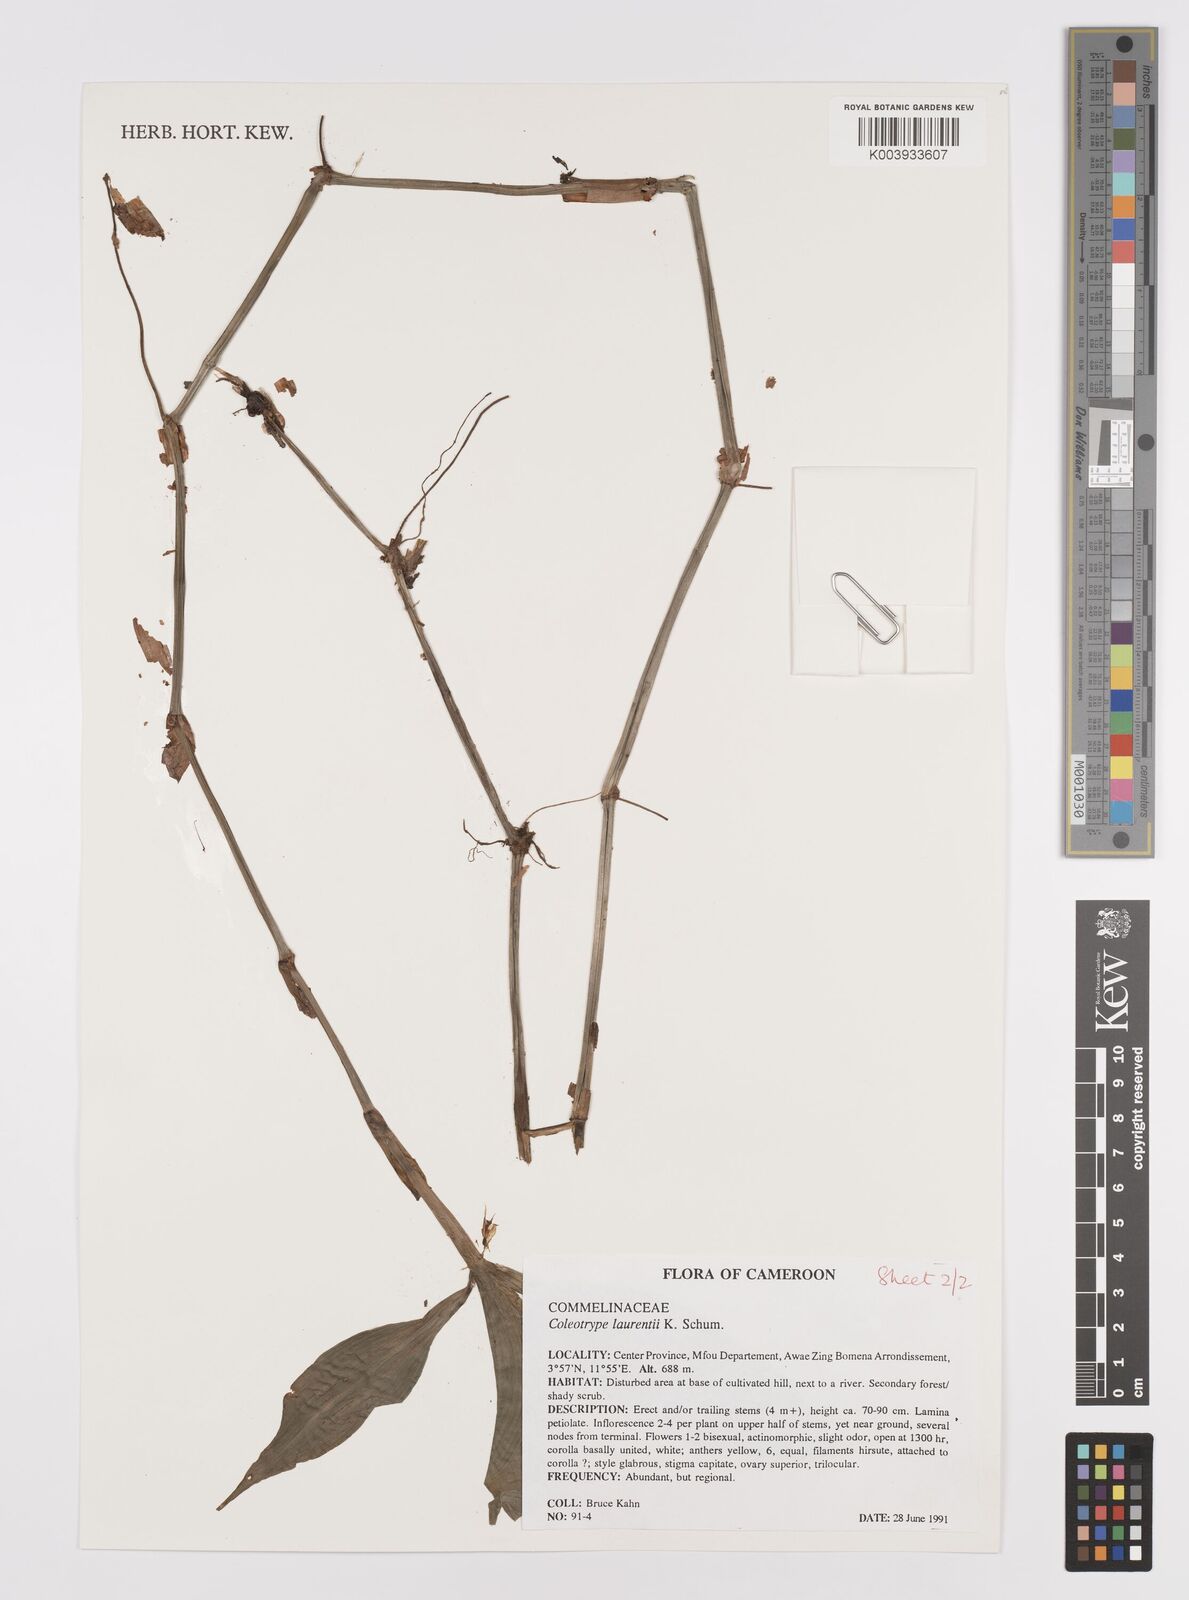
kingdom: Plantae
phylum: Tracheophyta
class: Liliopsida
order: Commelinales
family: Commelinaceae
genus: Coleotrype
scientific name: Coleotrype laurentii
